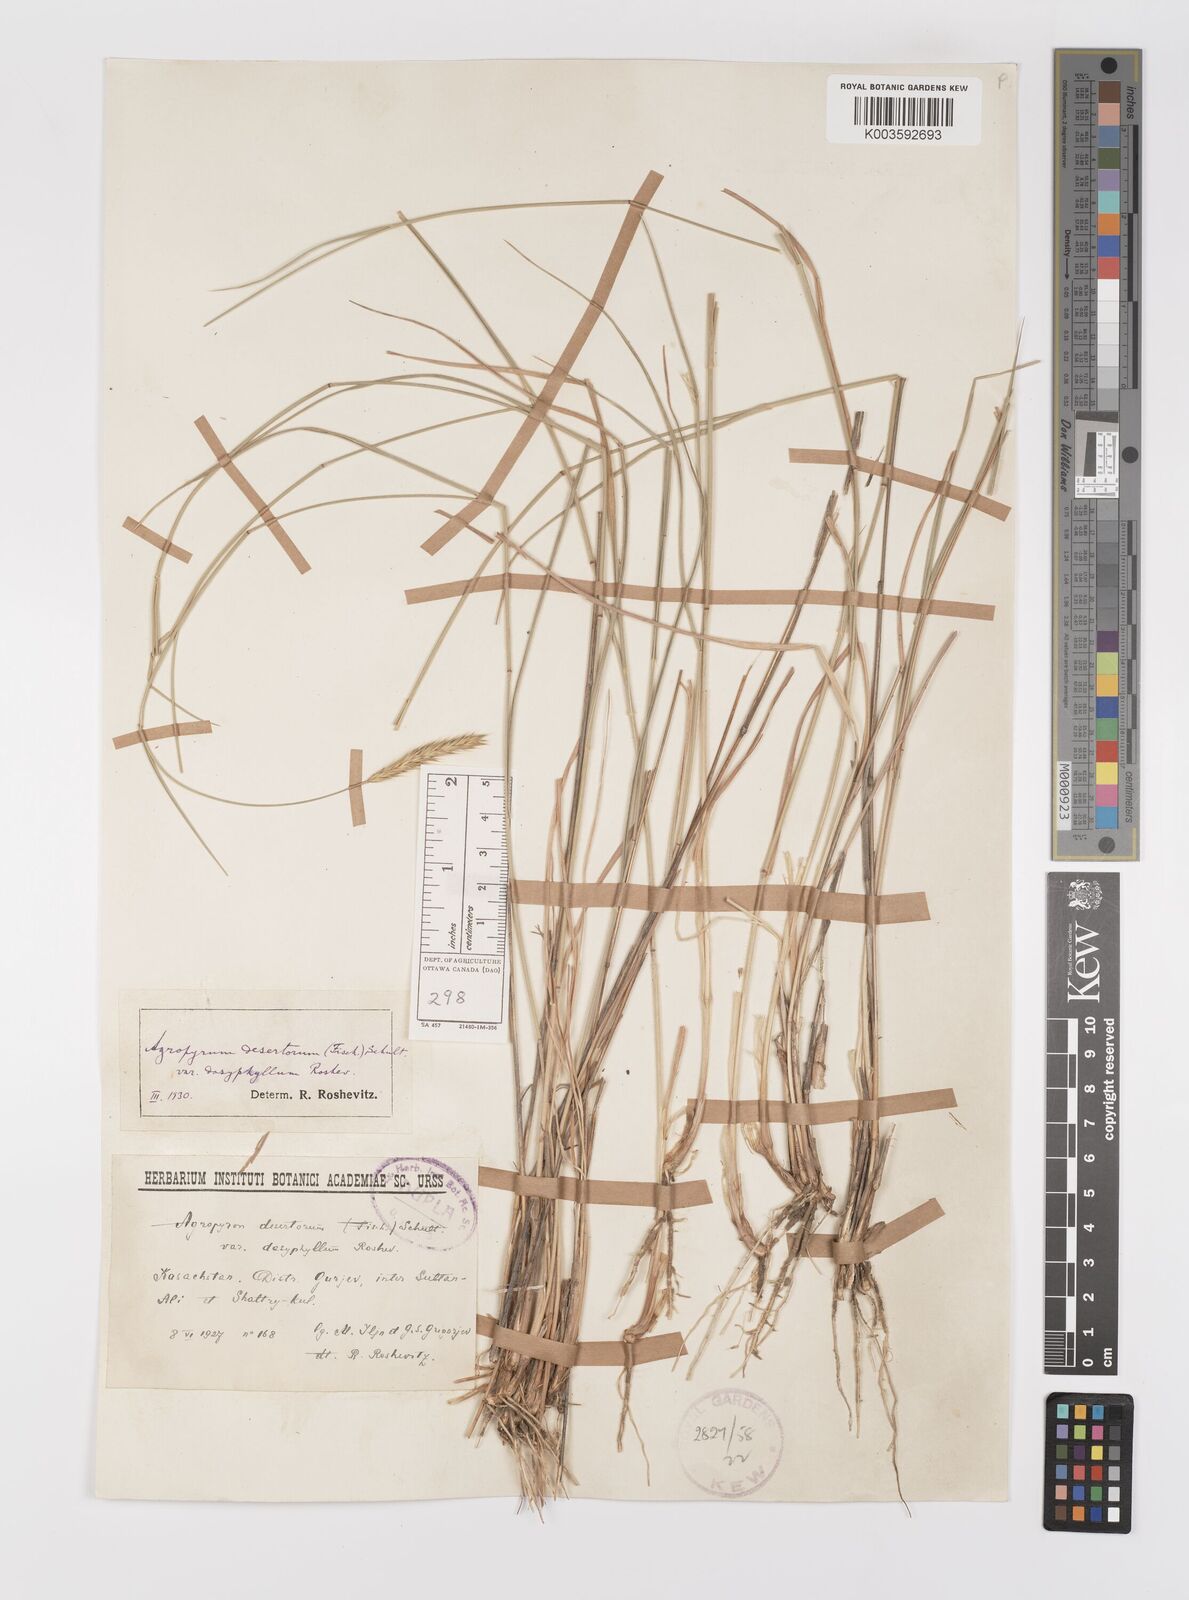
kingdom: Plantae
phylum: Tracheophyta
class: Liliopsida
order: Poales
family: Poaceae
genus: Agropyron
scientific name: Agropyron desertorum
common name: Desert wheatgrass
